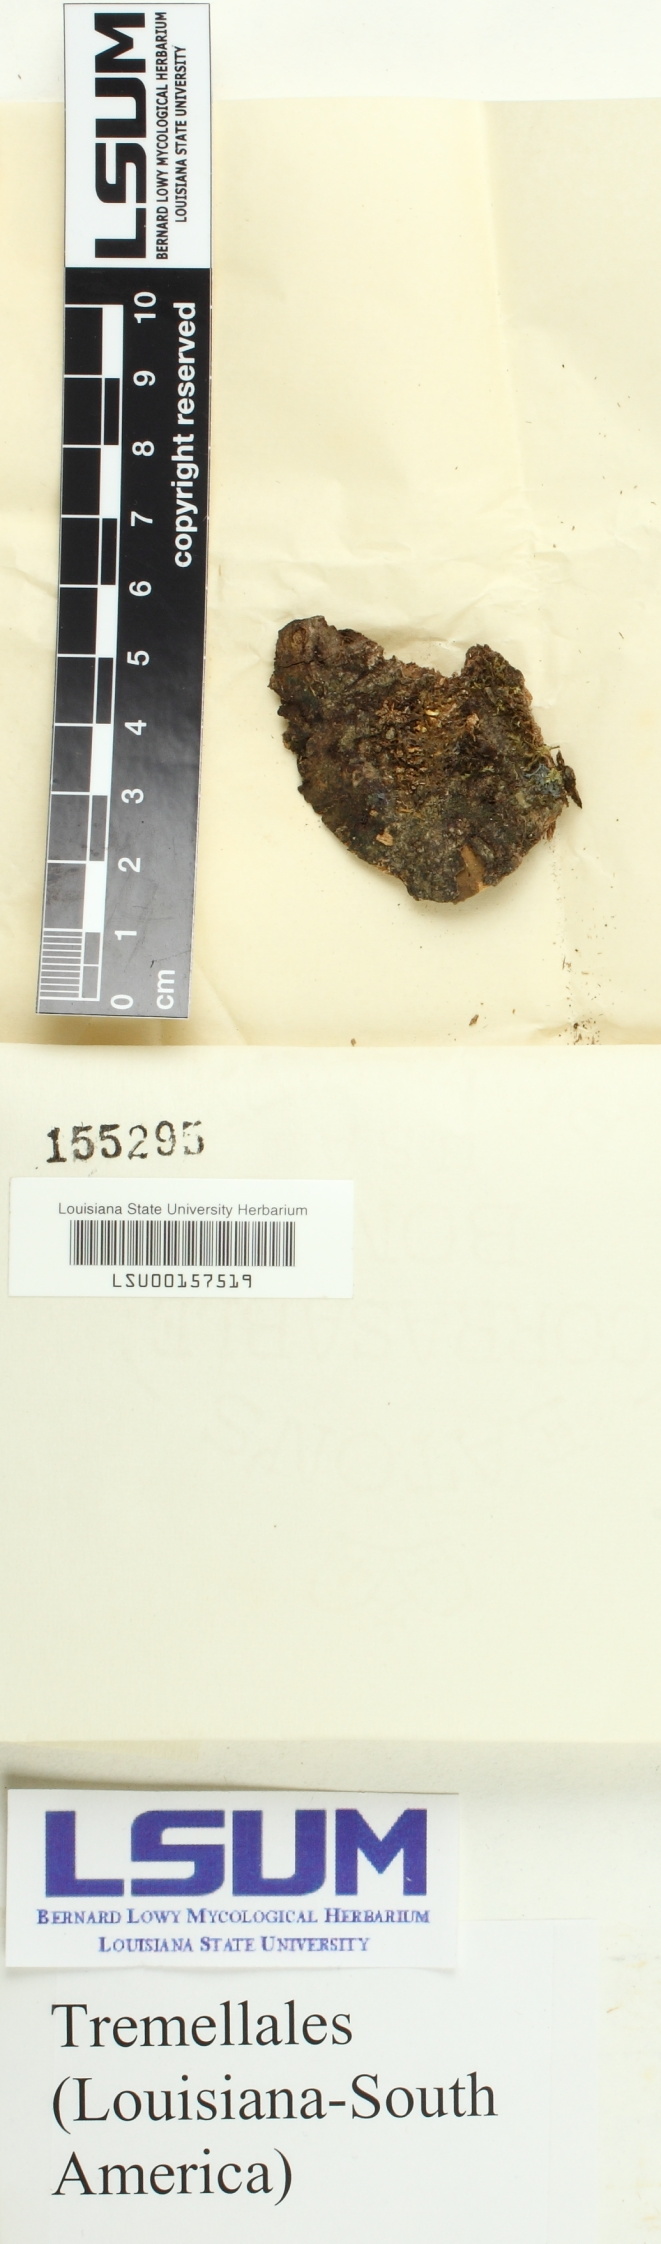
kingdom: Fungi
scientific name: Fungi
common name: Fungi
